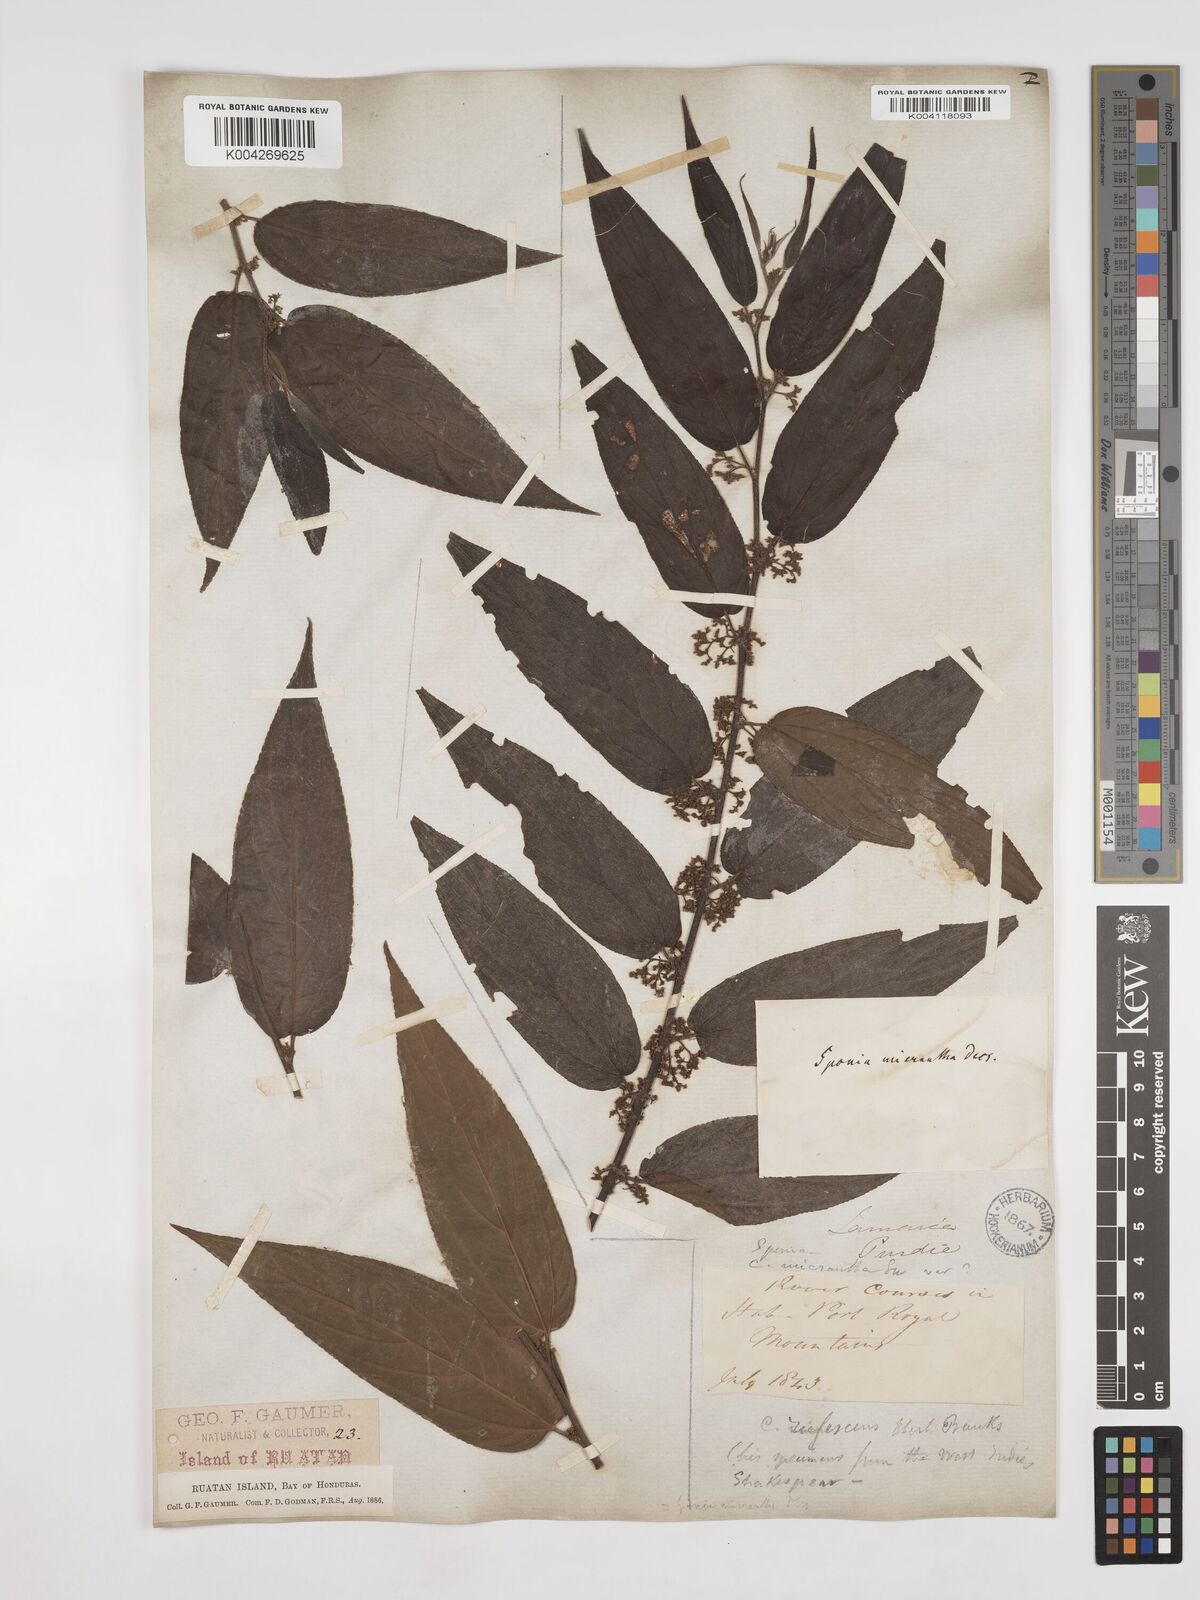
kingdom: Plantae
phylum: Tracheophyta
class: Magnoliopsida
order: Rosales
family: Cannabaceae
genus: Trema
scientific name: Trema micranthum
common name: Jamaican nettletree
